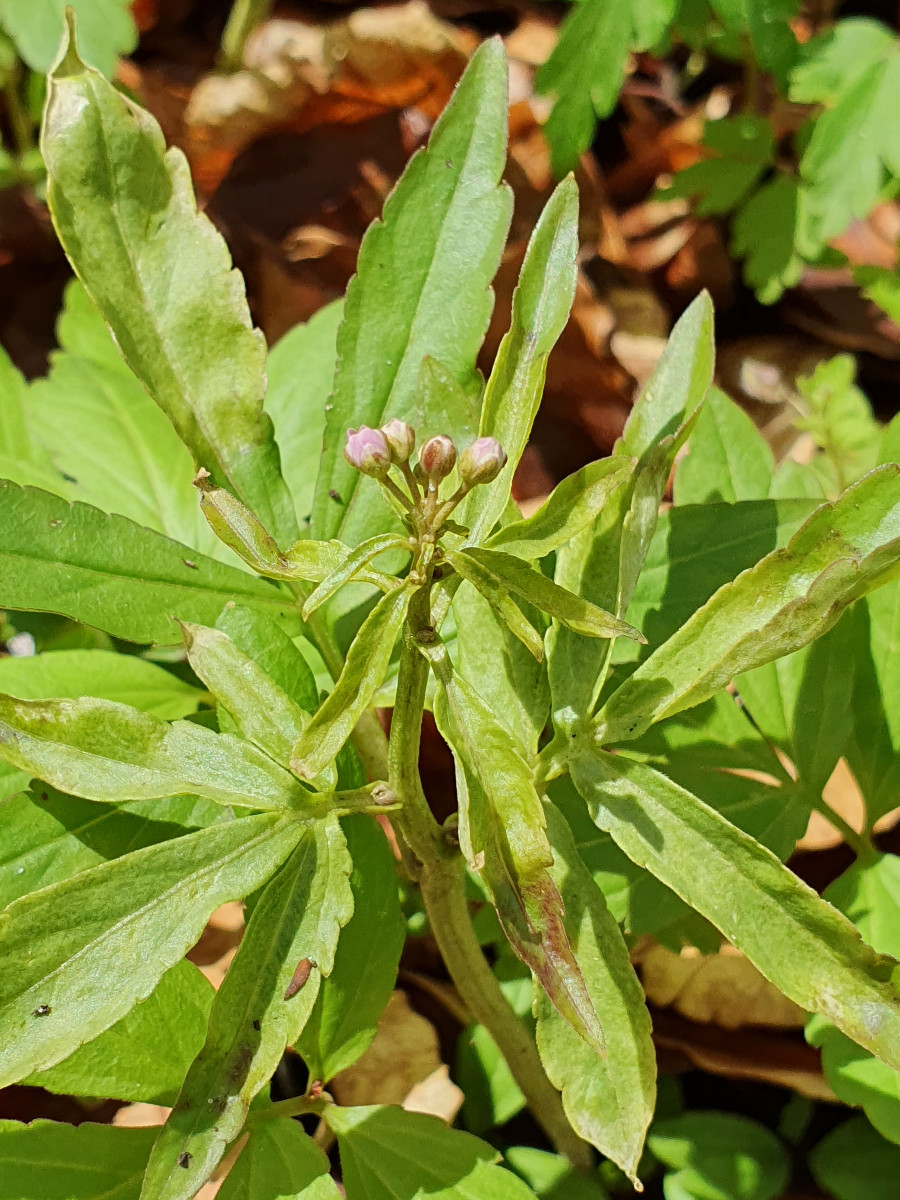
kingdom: Chromista
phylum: Oomycota
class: Peronosporea
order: Peronosporales
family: Peronosporaceae
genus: Hyaloperonospora
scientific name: Hyaloperonospora dentariae
